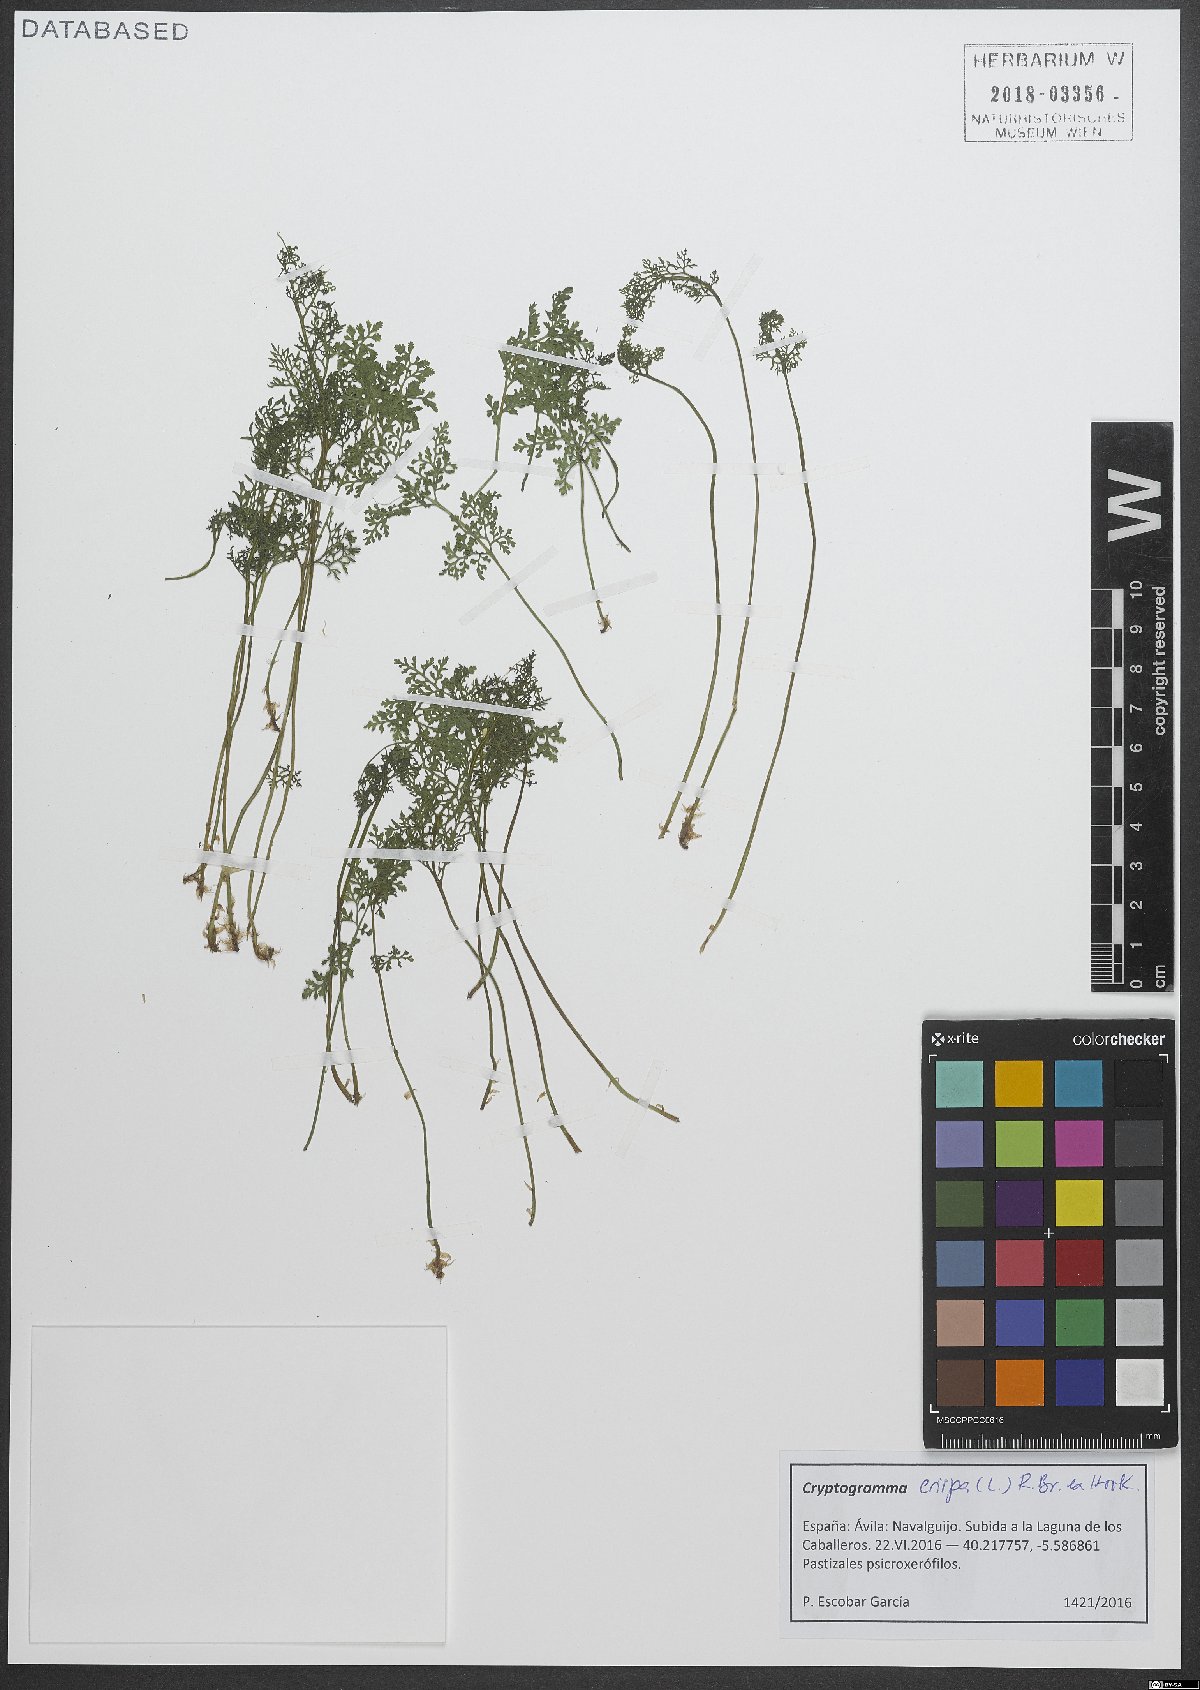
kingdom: Plantae
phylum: Tracheophyta
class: Polypodiopsida
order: Polypodiales
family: Pteridaceae
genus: Cryptogramma
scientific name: Cryptogramma crispa
